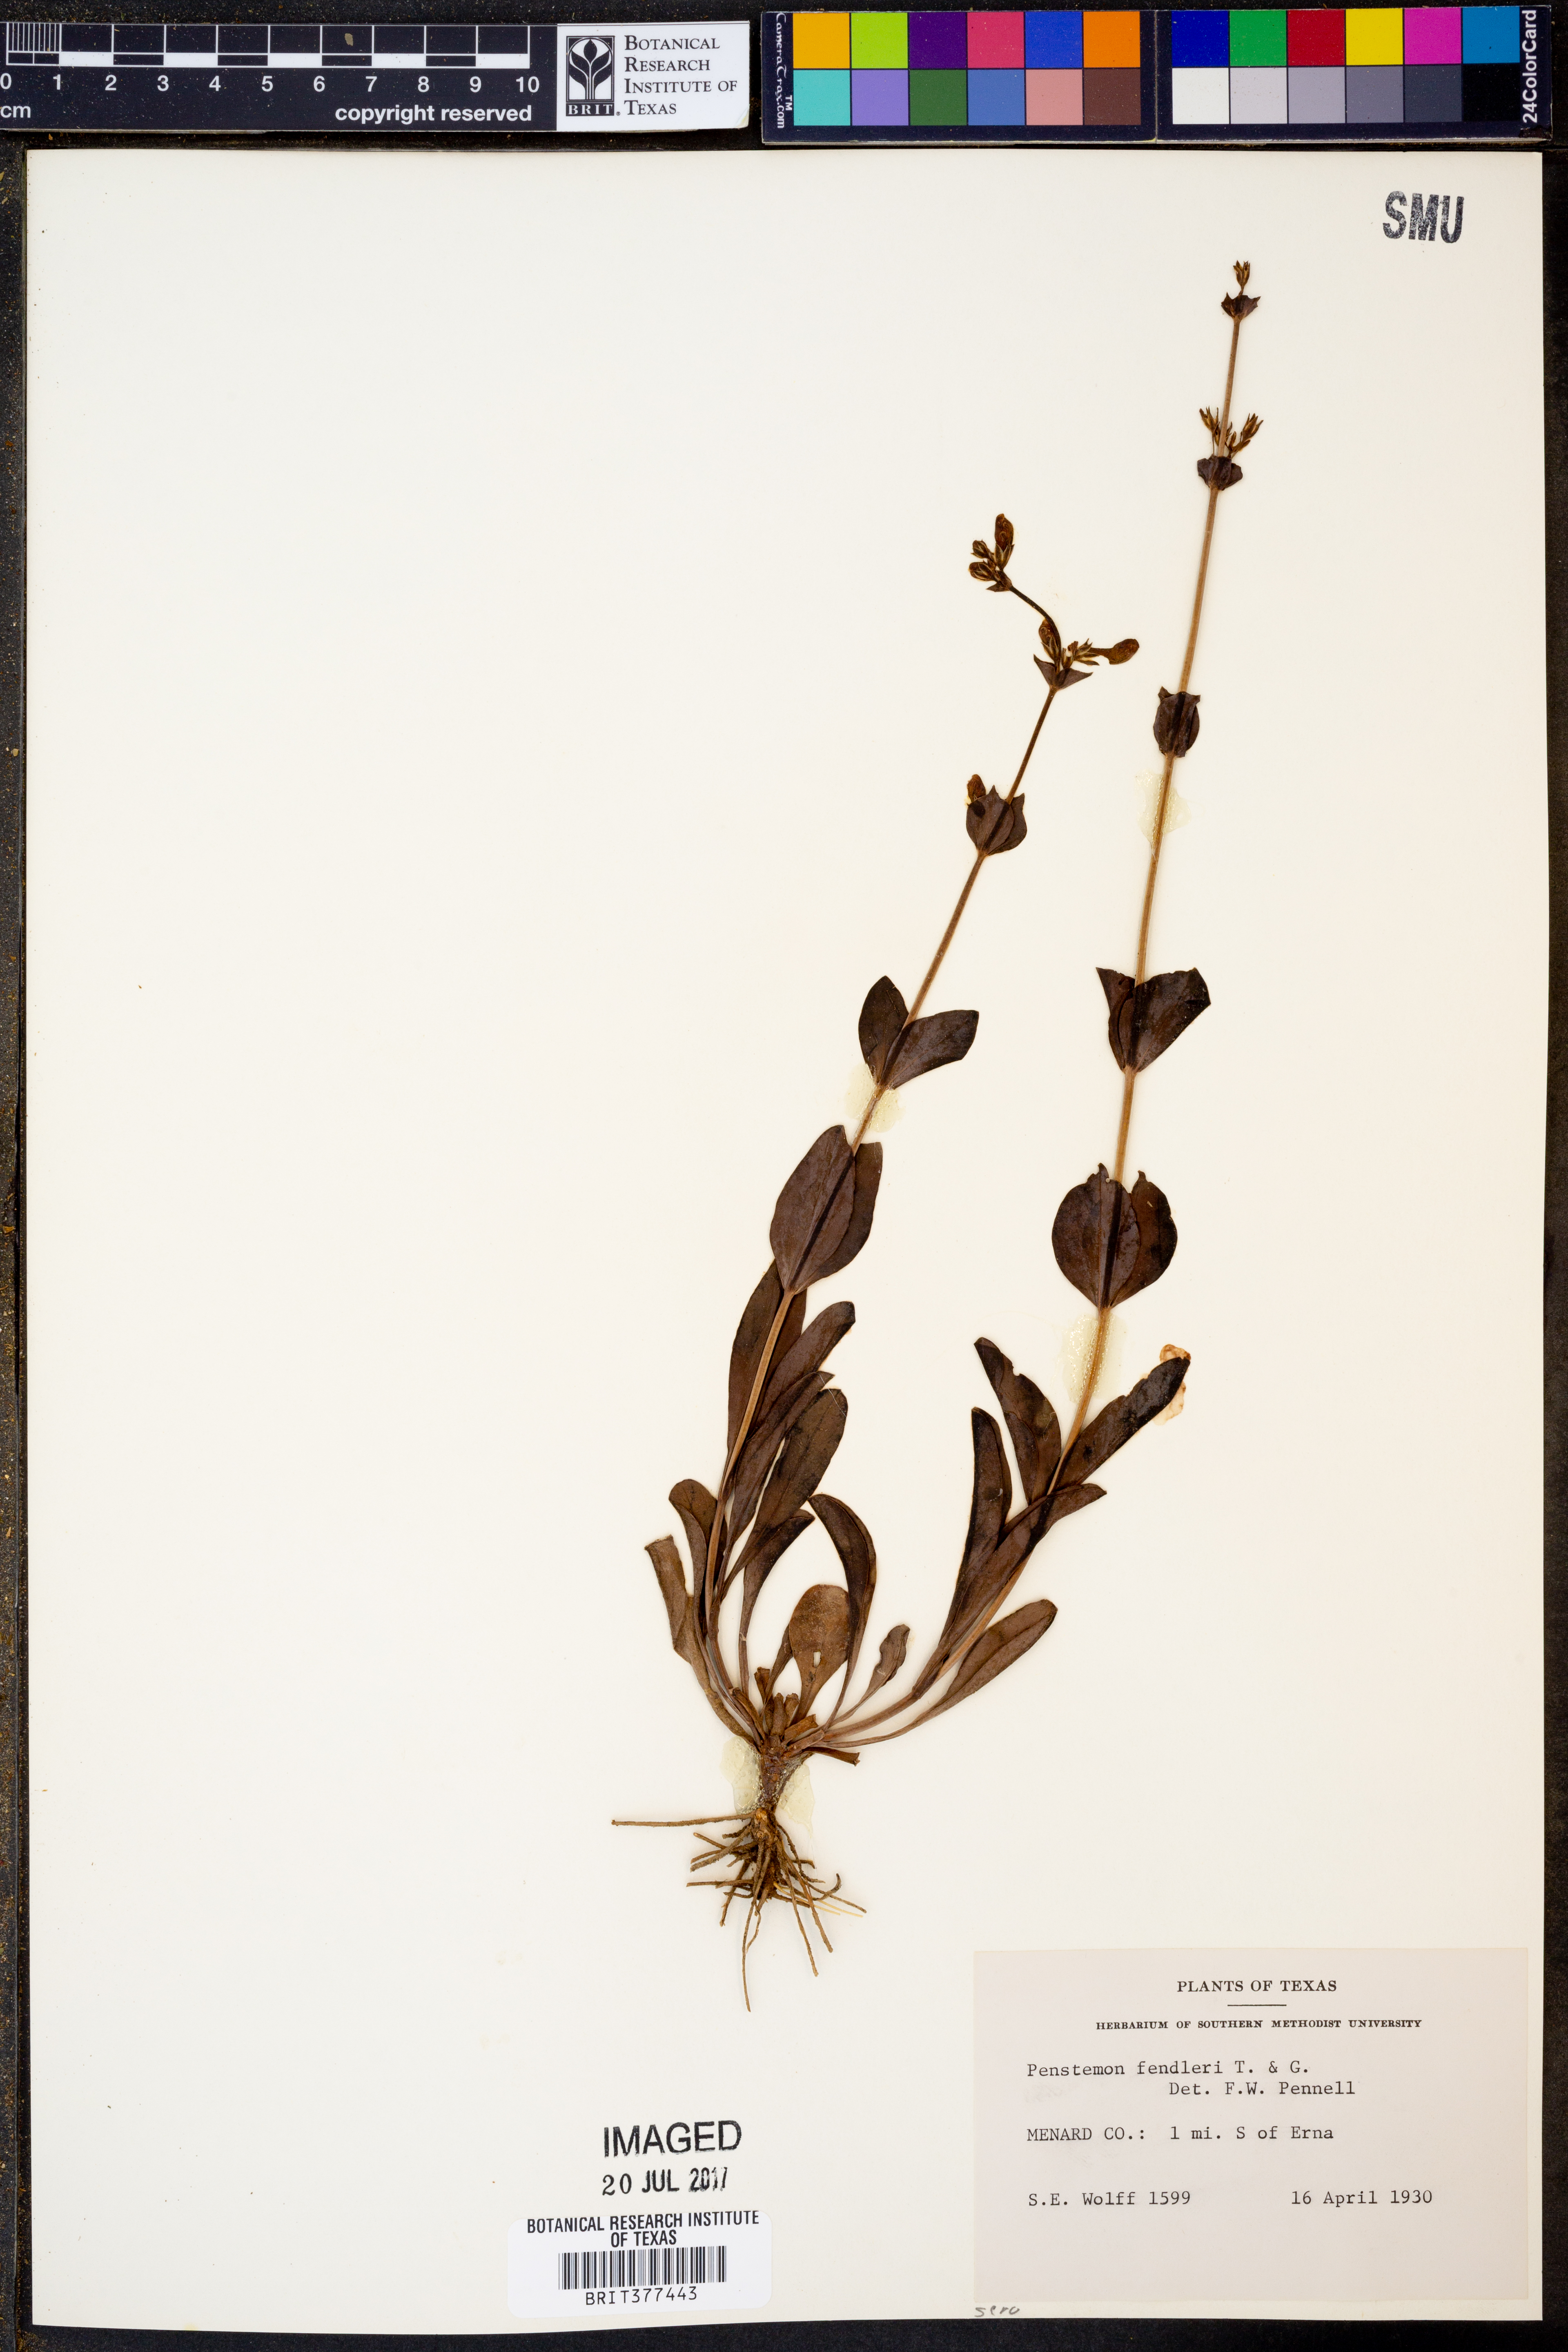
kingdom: Plantae
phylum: Tracheophyta
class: Magnoliopsida
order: Lamiales
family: Plantaginaceae
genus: Penstemon
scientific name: Penstemon fendleri
